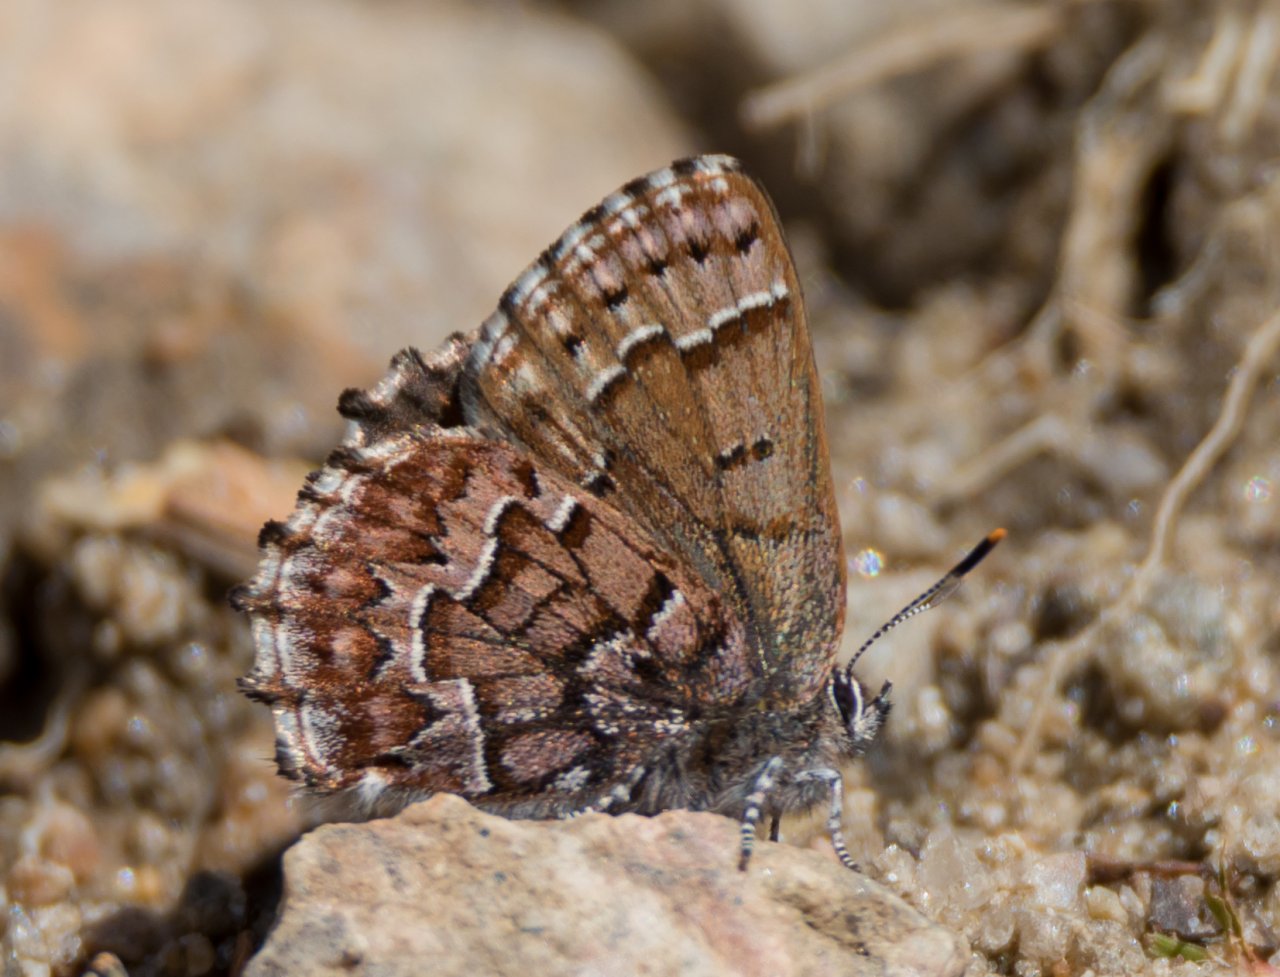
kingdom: Animalia
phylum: Arthropoda
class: Insecta
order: Lepidoptera
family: Lycaenidae
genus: Incisalia
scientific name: Incisalia niphon
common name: Eastern Pine Elfin
